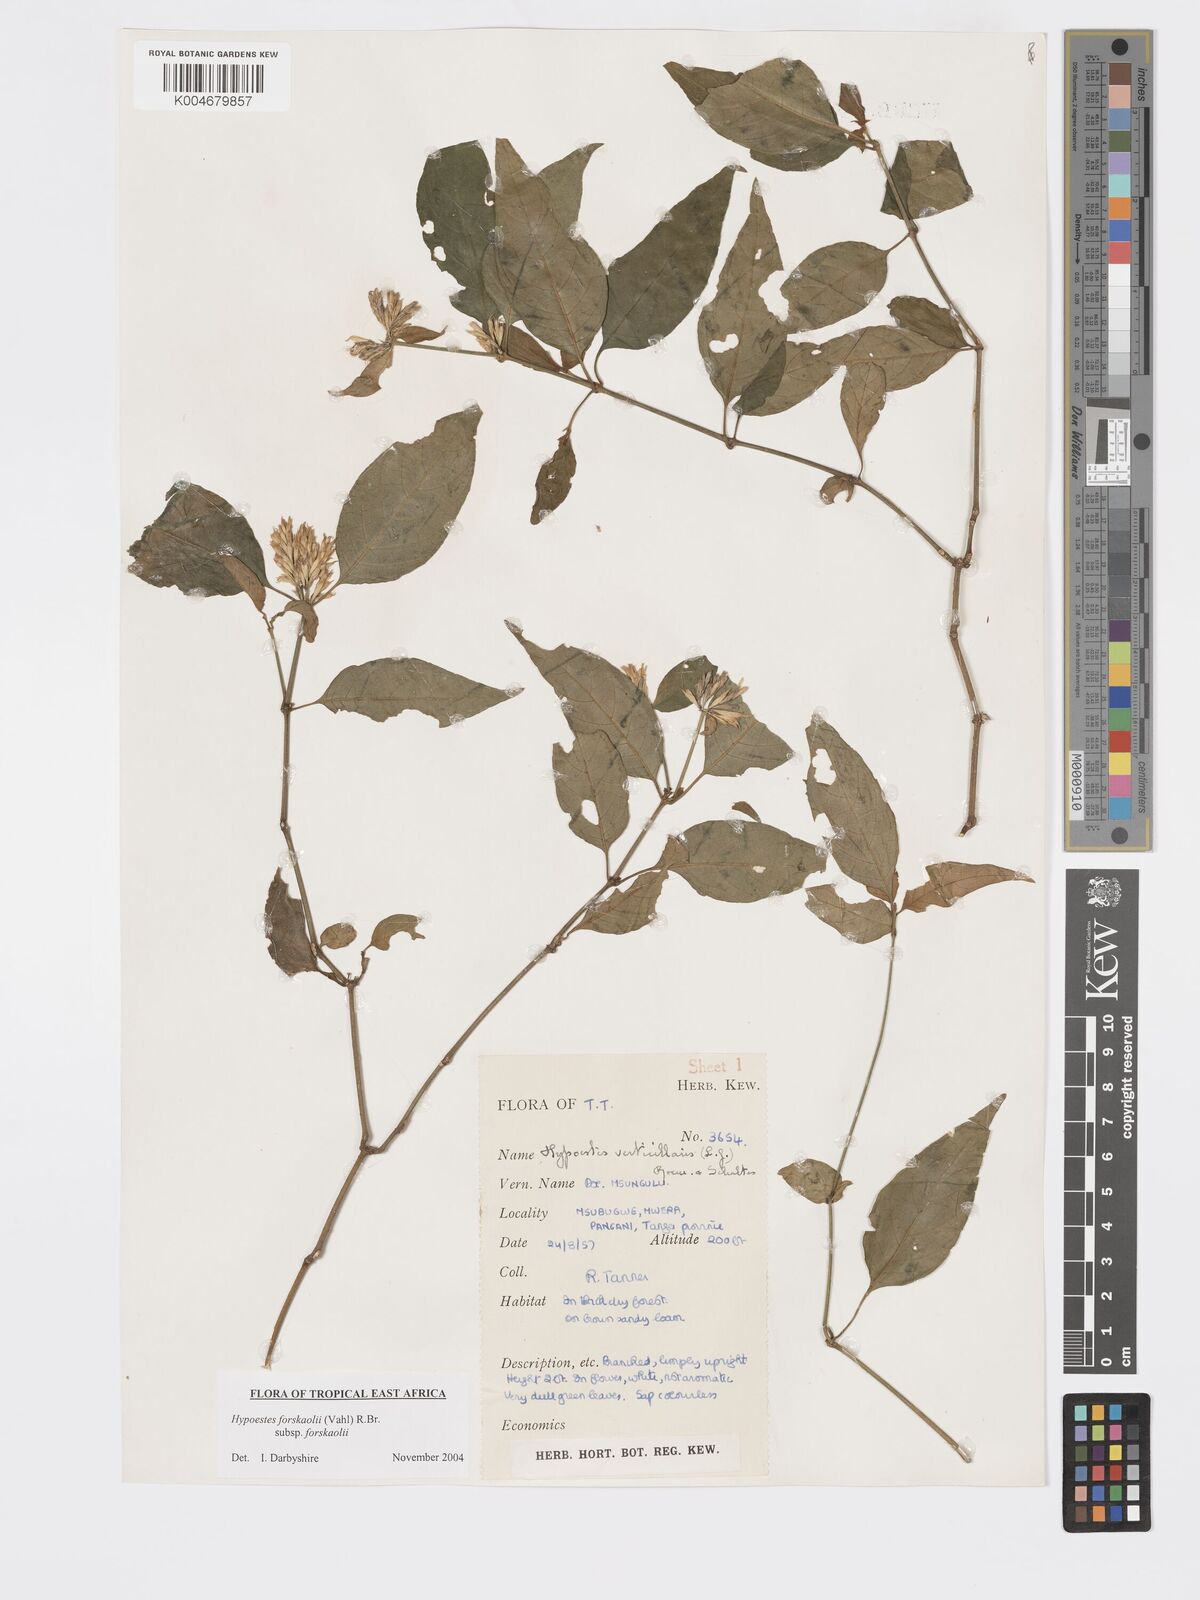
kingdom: Plantae
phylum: Tracheophyta
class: Magnoliopsida
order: Lamiales
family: Acanthaceae
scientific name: Acanthaceae
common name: Acanthaceae
